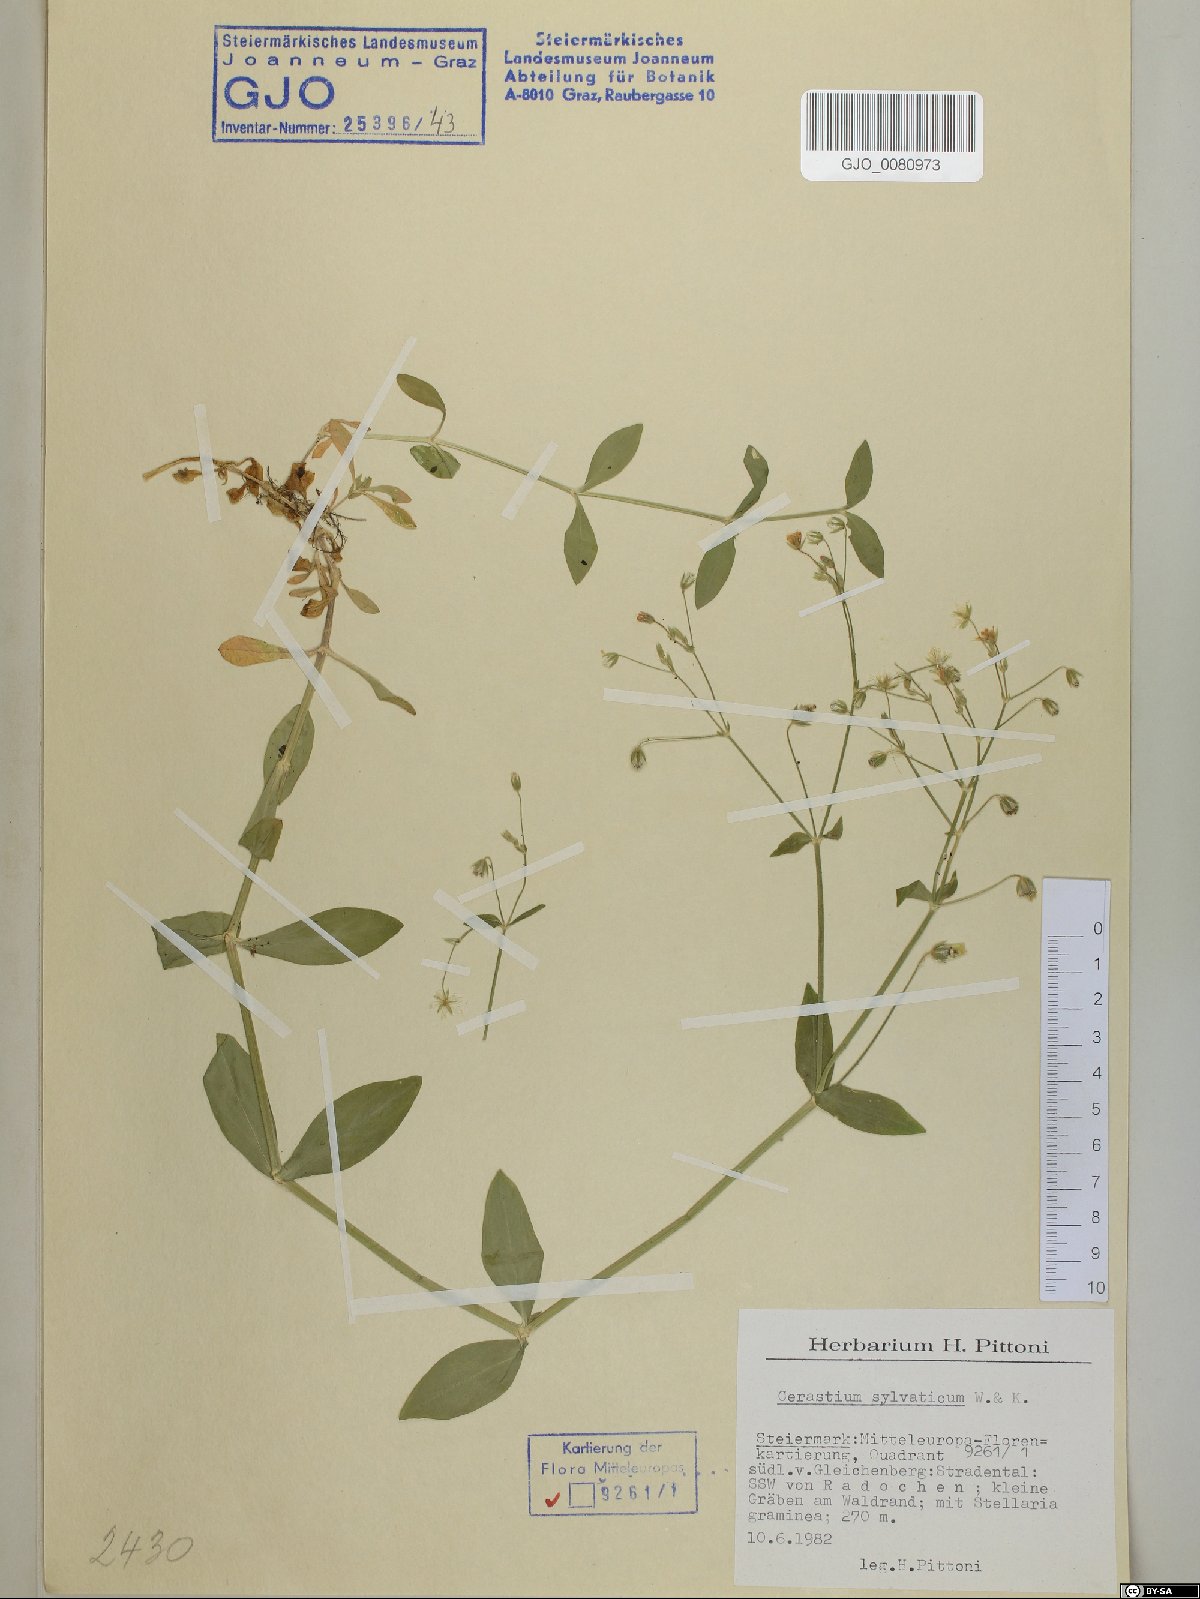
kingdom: Plantae
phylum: Tracheophyta
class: Magnoliopsida
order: Caryophyllales
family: Caryophyllaceae
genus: Cerastium
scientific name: Cerastium sylvaticum
